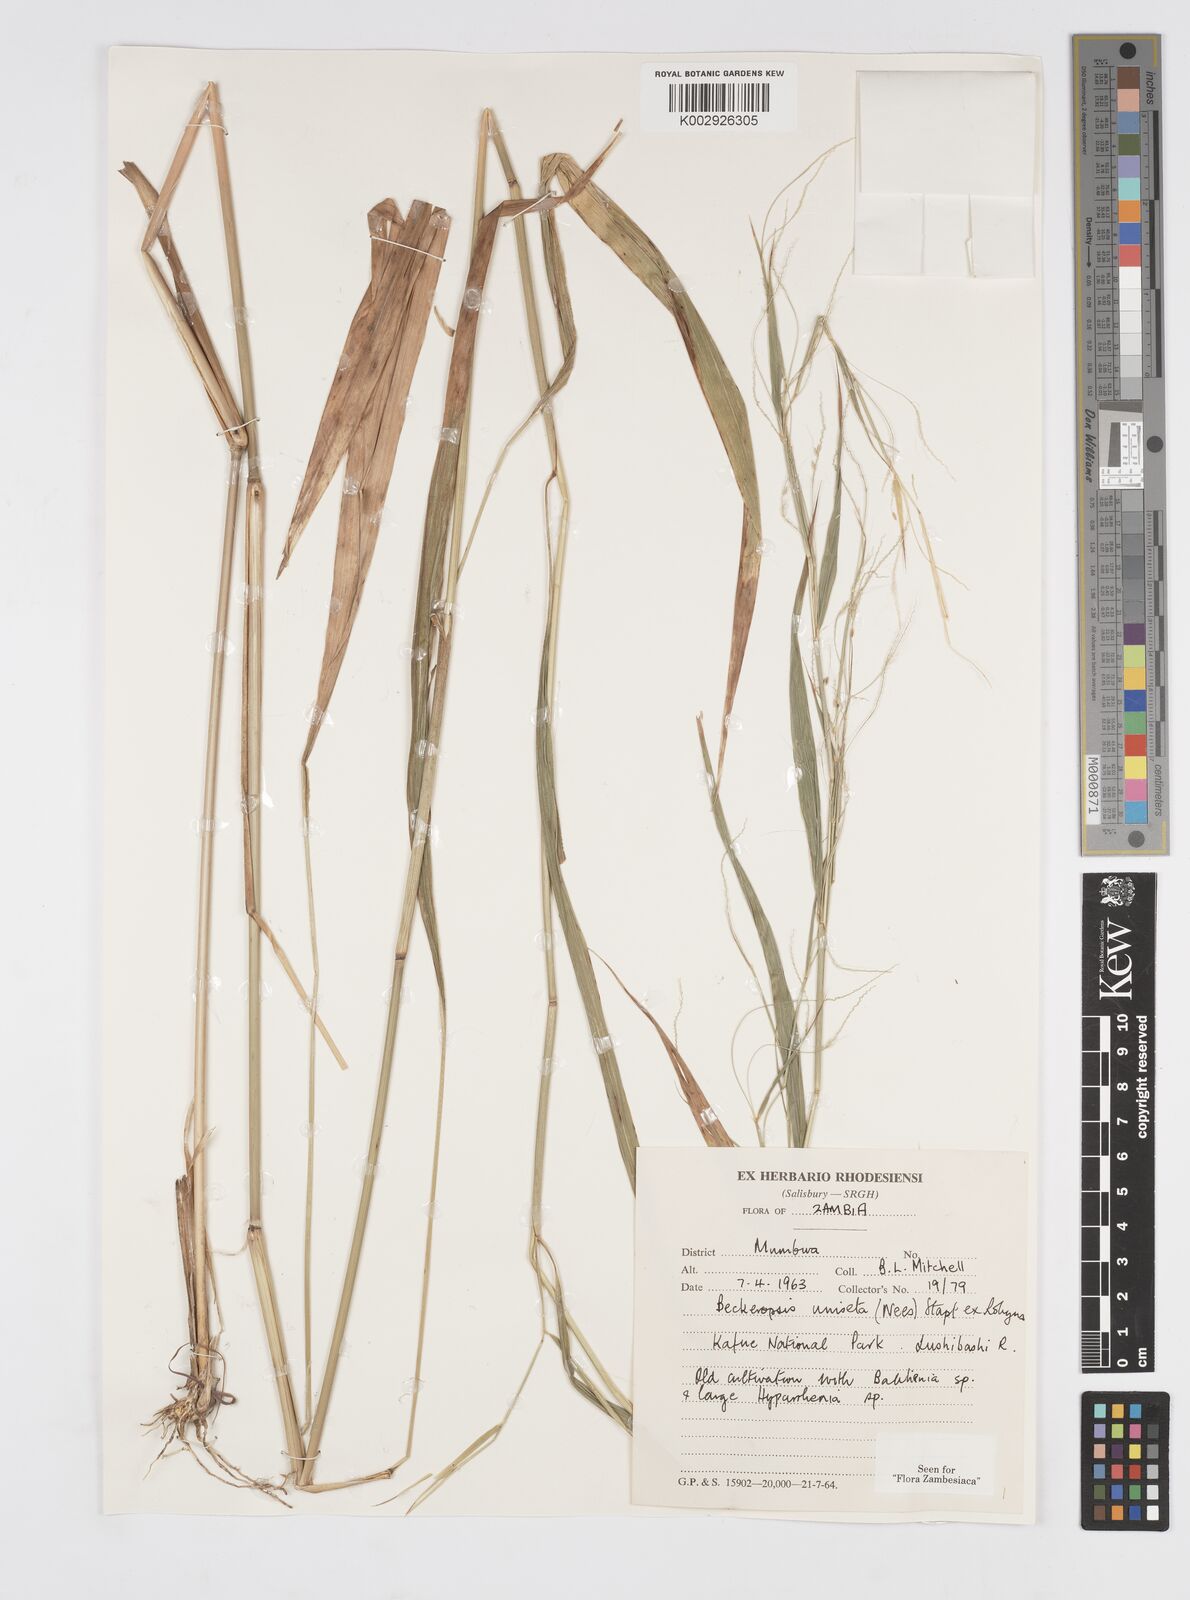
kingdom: Plantae
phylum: Tracheophyta
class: Liliopsida
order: Poales
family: Poaceae
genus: Cenchrus
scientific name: Cenchrus unisetus
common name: Natal grass
